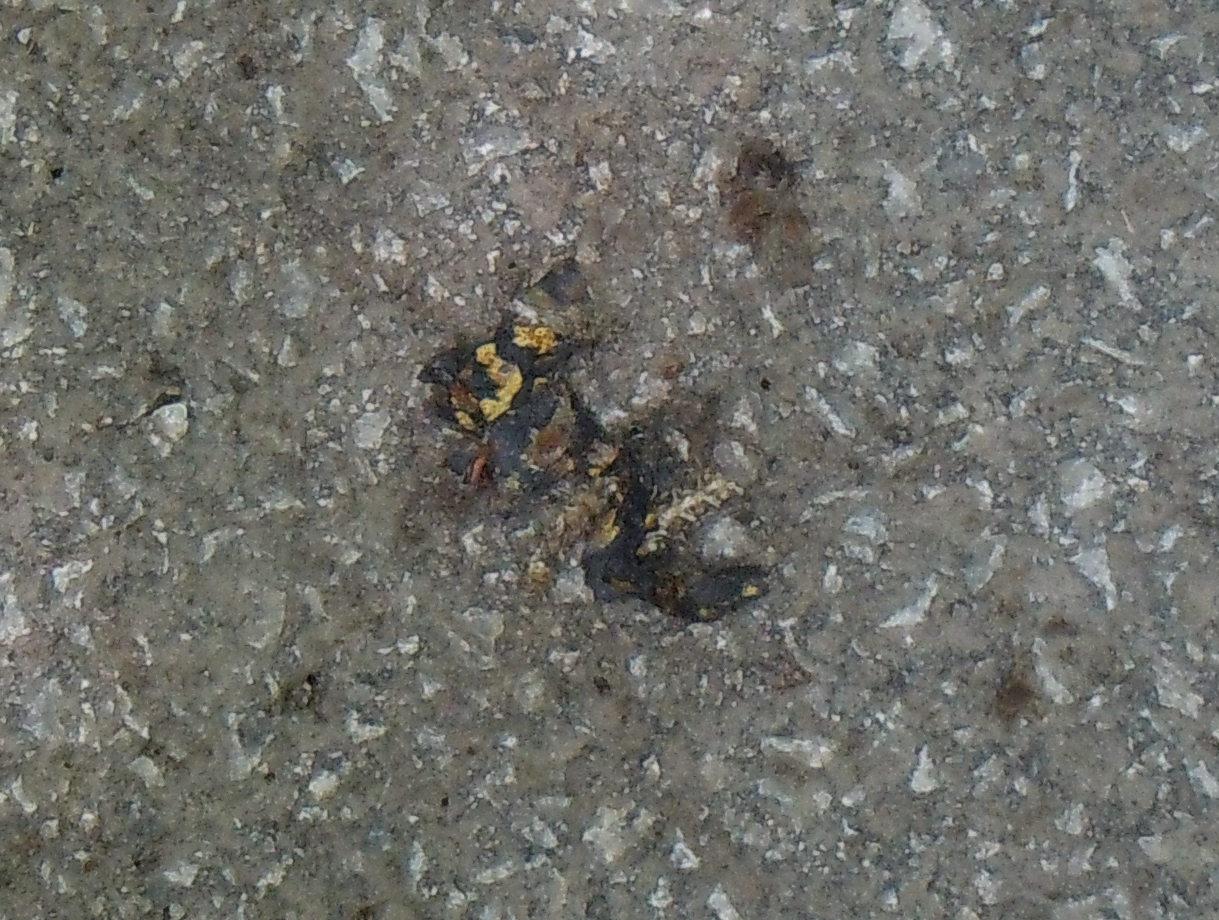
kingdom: Animalia
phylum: Chordata
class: Amphibia
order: Caudata
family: Salamandridae
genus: Salamandra
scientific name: Salamandra salamandra
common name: Fire salamander
